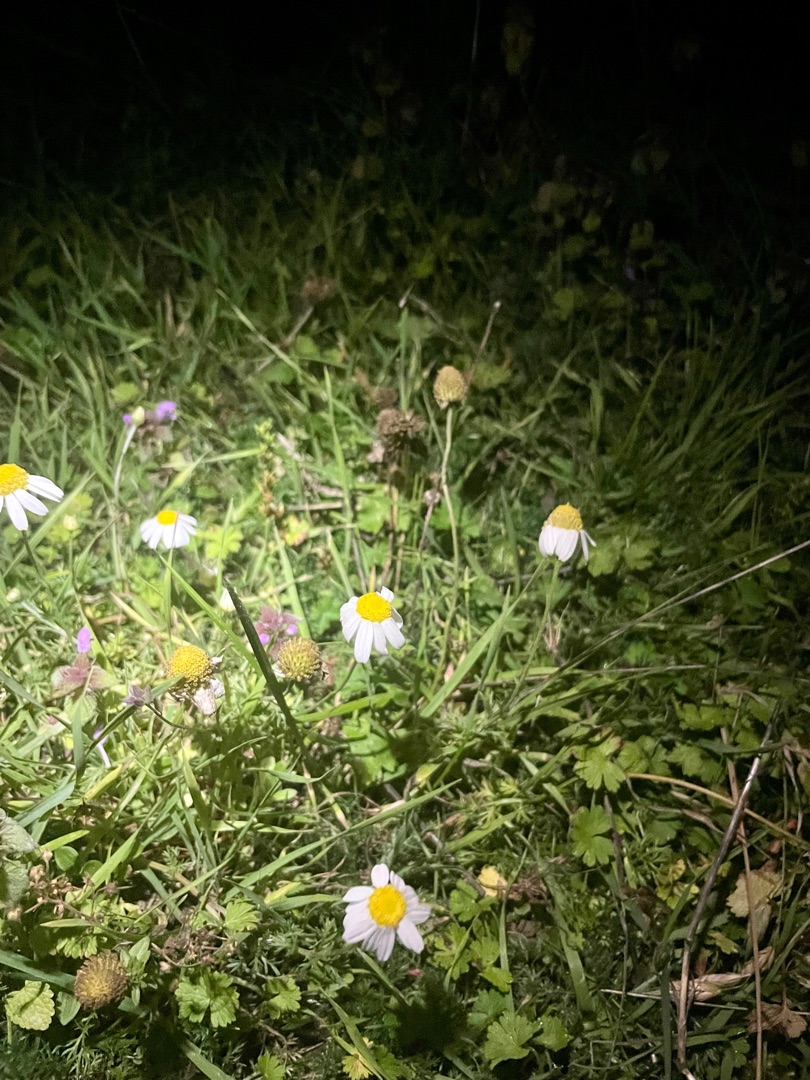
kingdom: Plantae
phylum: Tracheophyta
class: Magnoliopsida
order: Asterales
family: Asteraceae
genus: Anthemis
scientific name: Anthemis arvensis
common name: Ager-gåseurt
